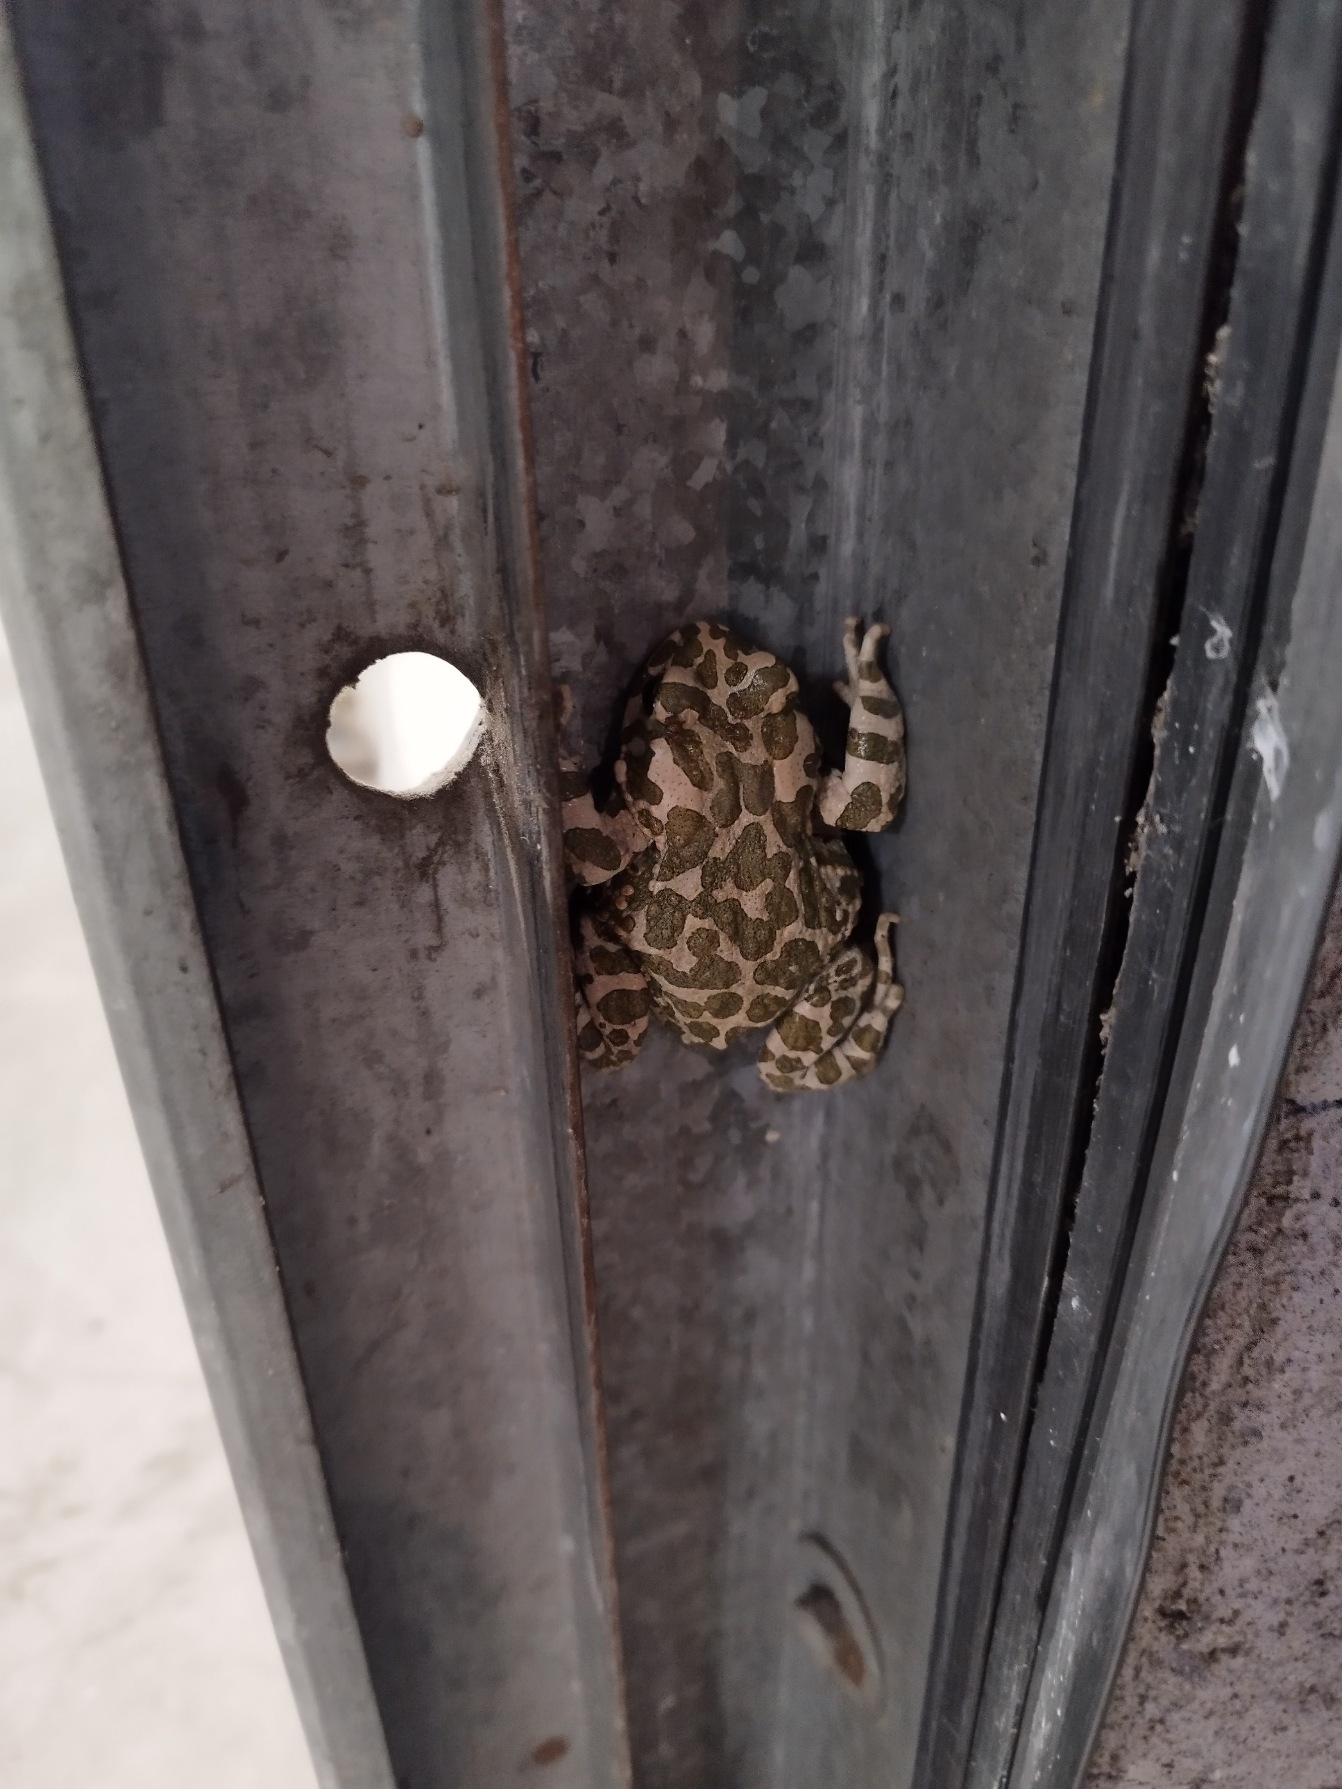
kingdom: Animalia
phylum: Chordata
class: Amphibia
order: Anura
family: Bufonidae
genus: Bufotes
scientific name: Bufotes viridis
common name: Grønbroget tudse
